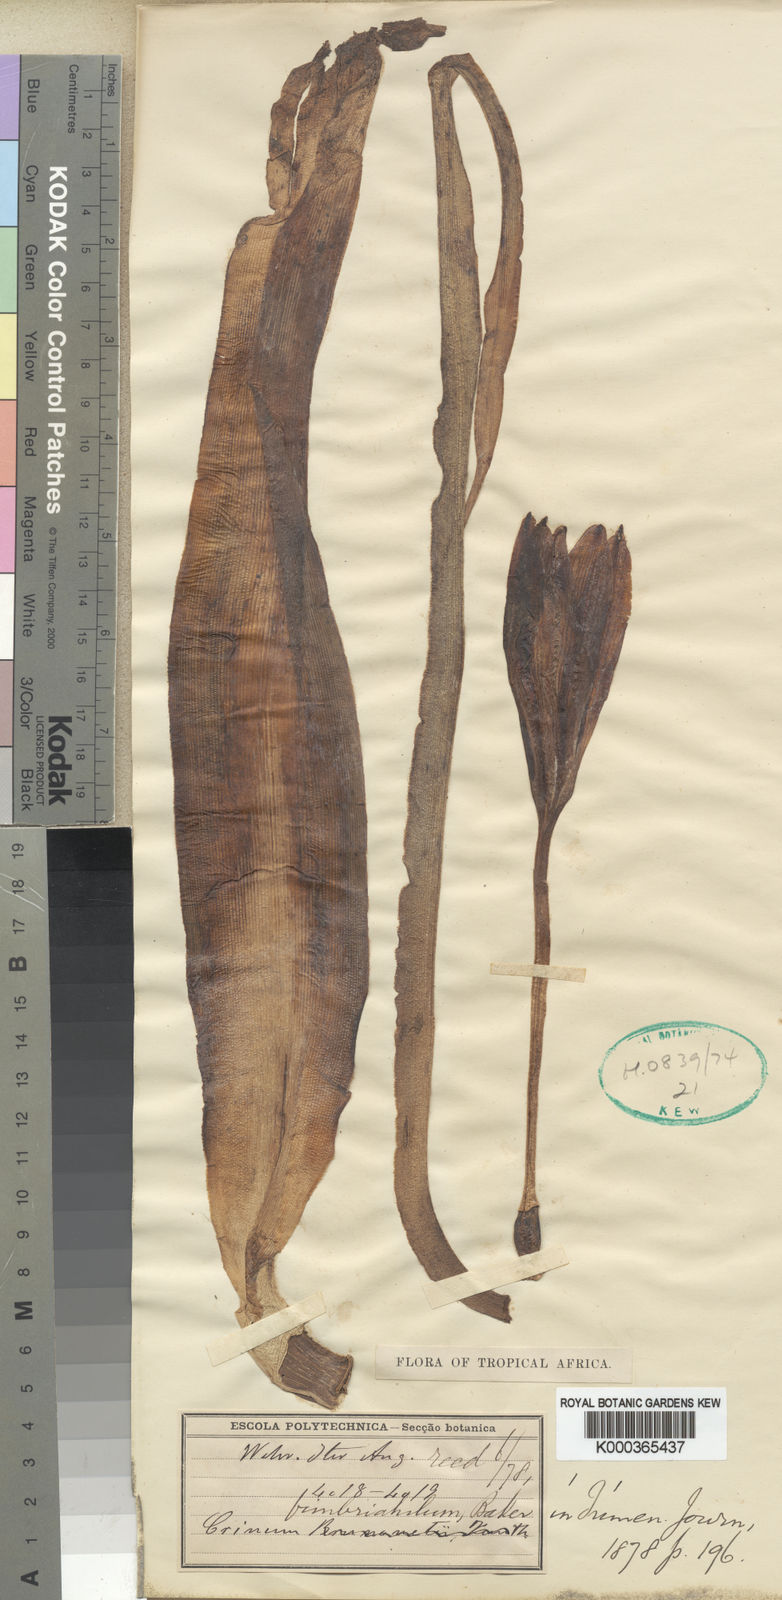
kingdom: Plantae
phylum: Tracheophyta
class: Liliopsida
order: Asparagales
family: Amaryllidaceae
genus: Crinum
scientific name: Crinum fimbriatulum
